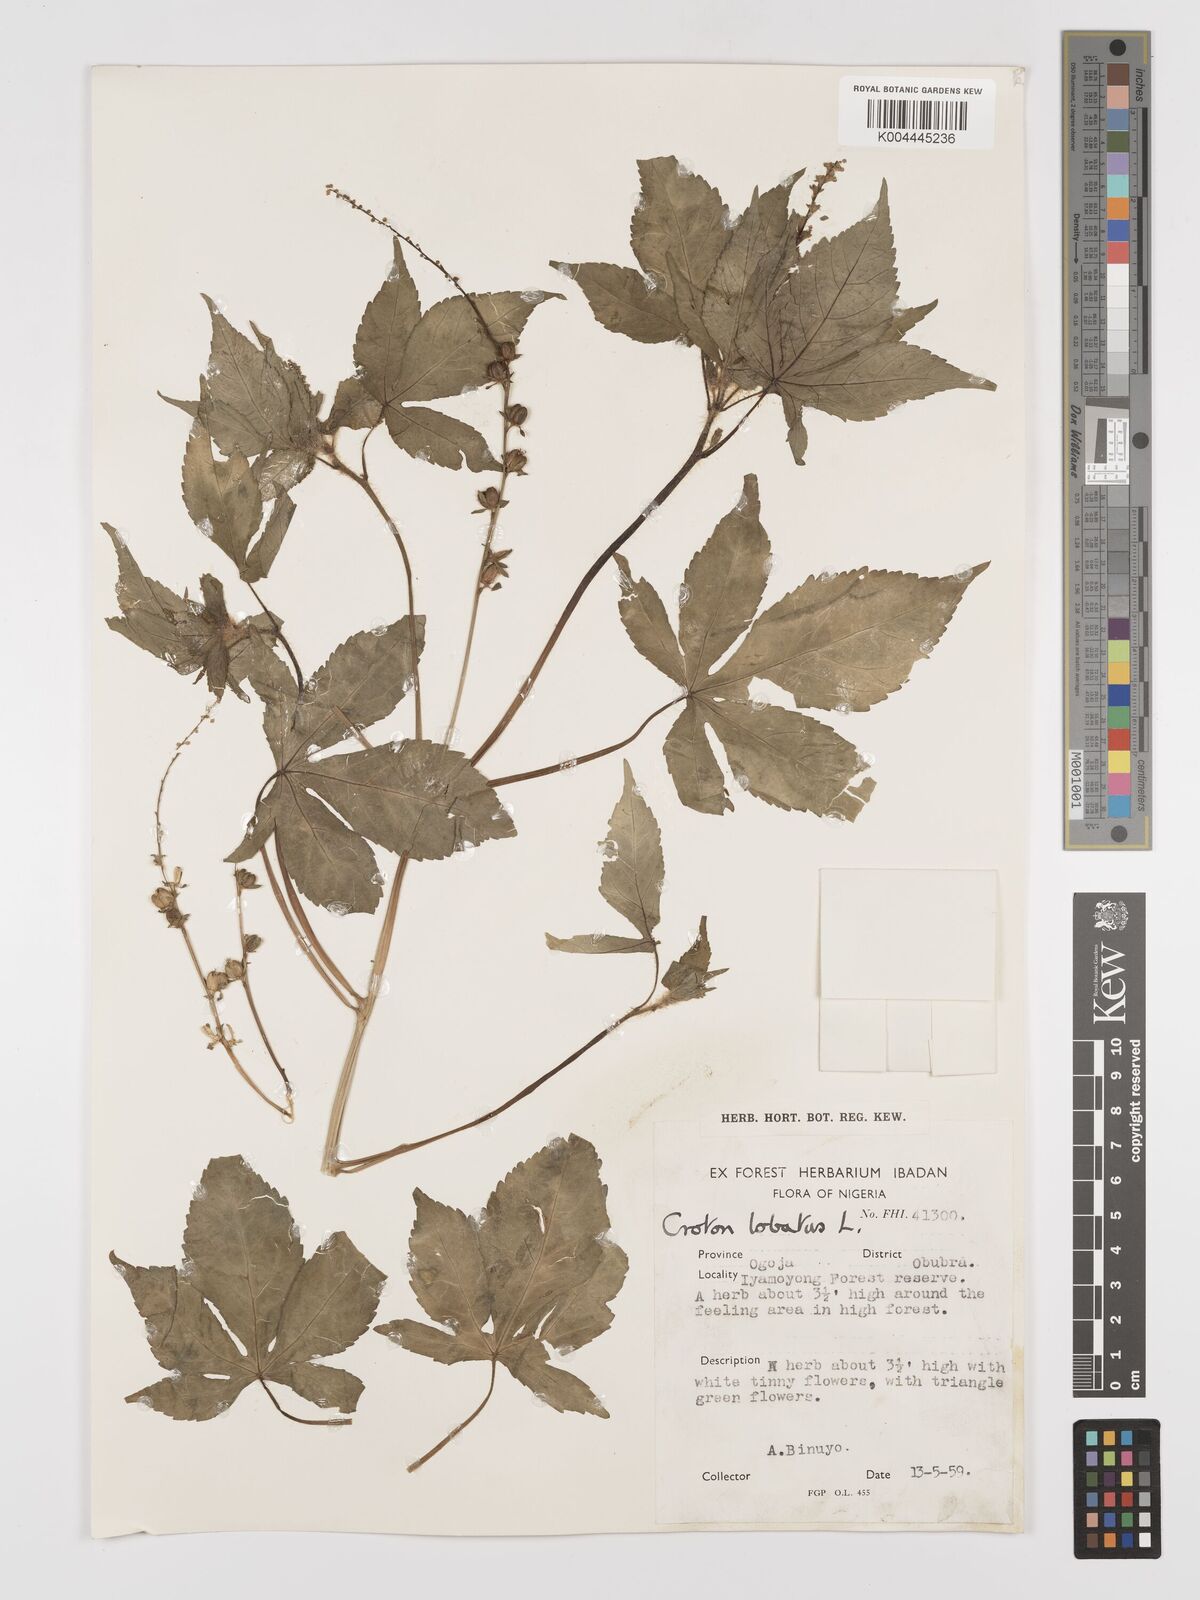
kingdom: Plantae
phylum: Tracheophyta
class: Magnoliopsida
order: Malpighiales
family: Euphorbiaceae
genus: Astraea
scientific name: Astraea lobata
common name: Lobed croton
